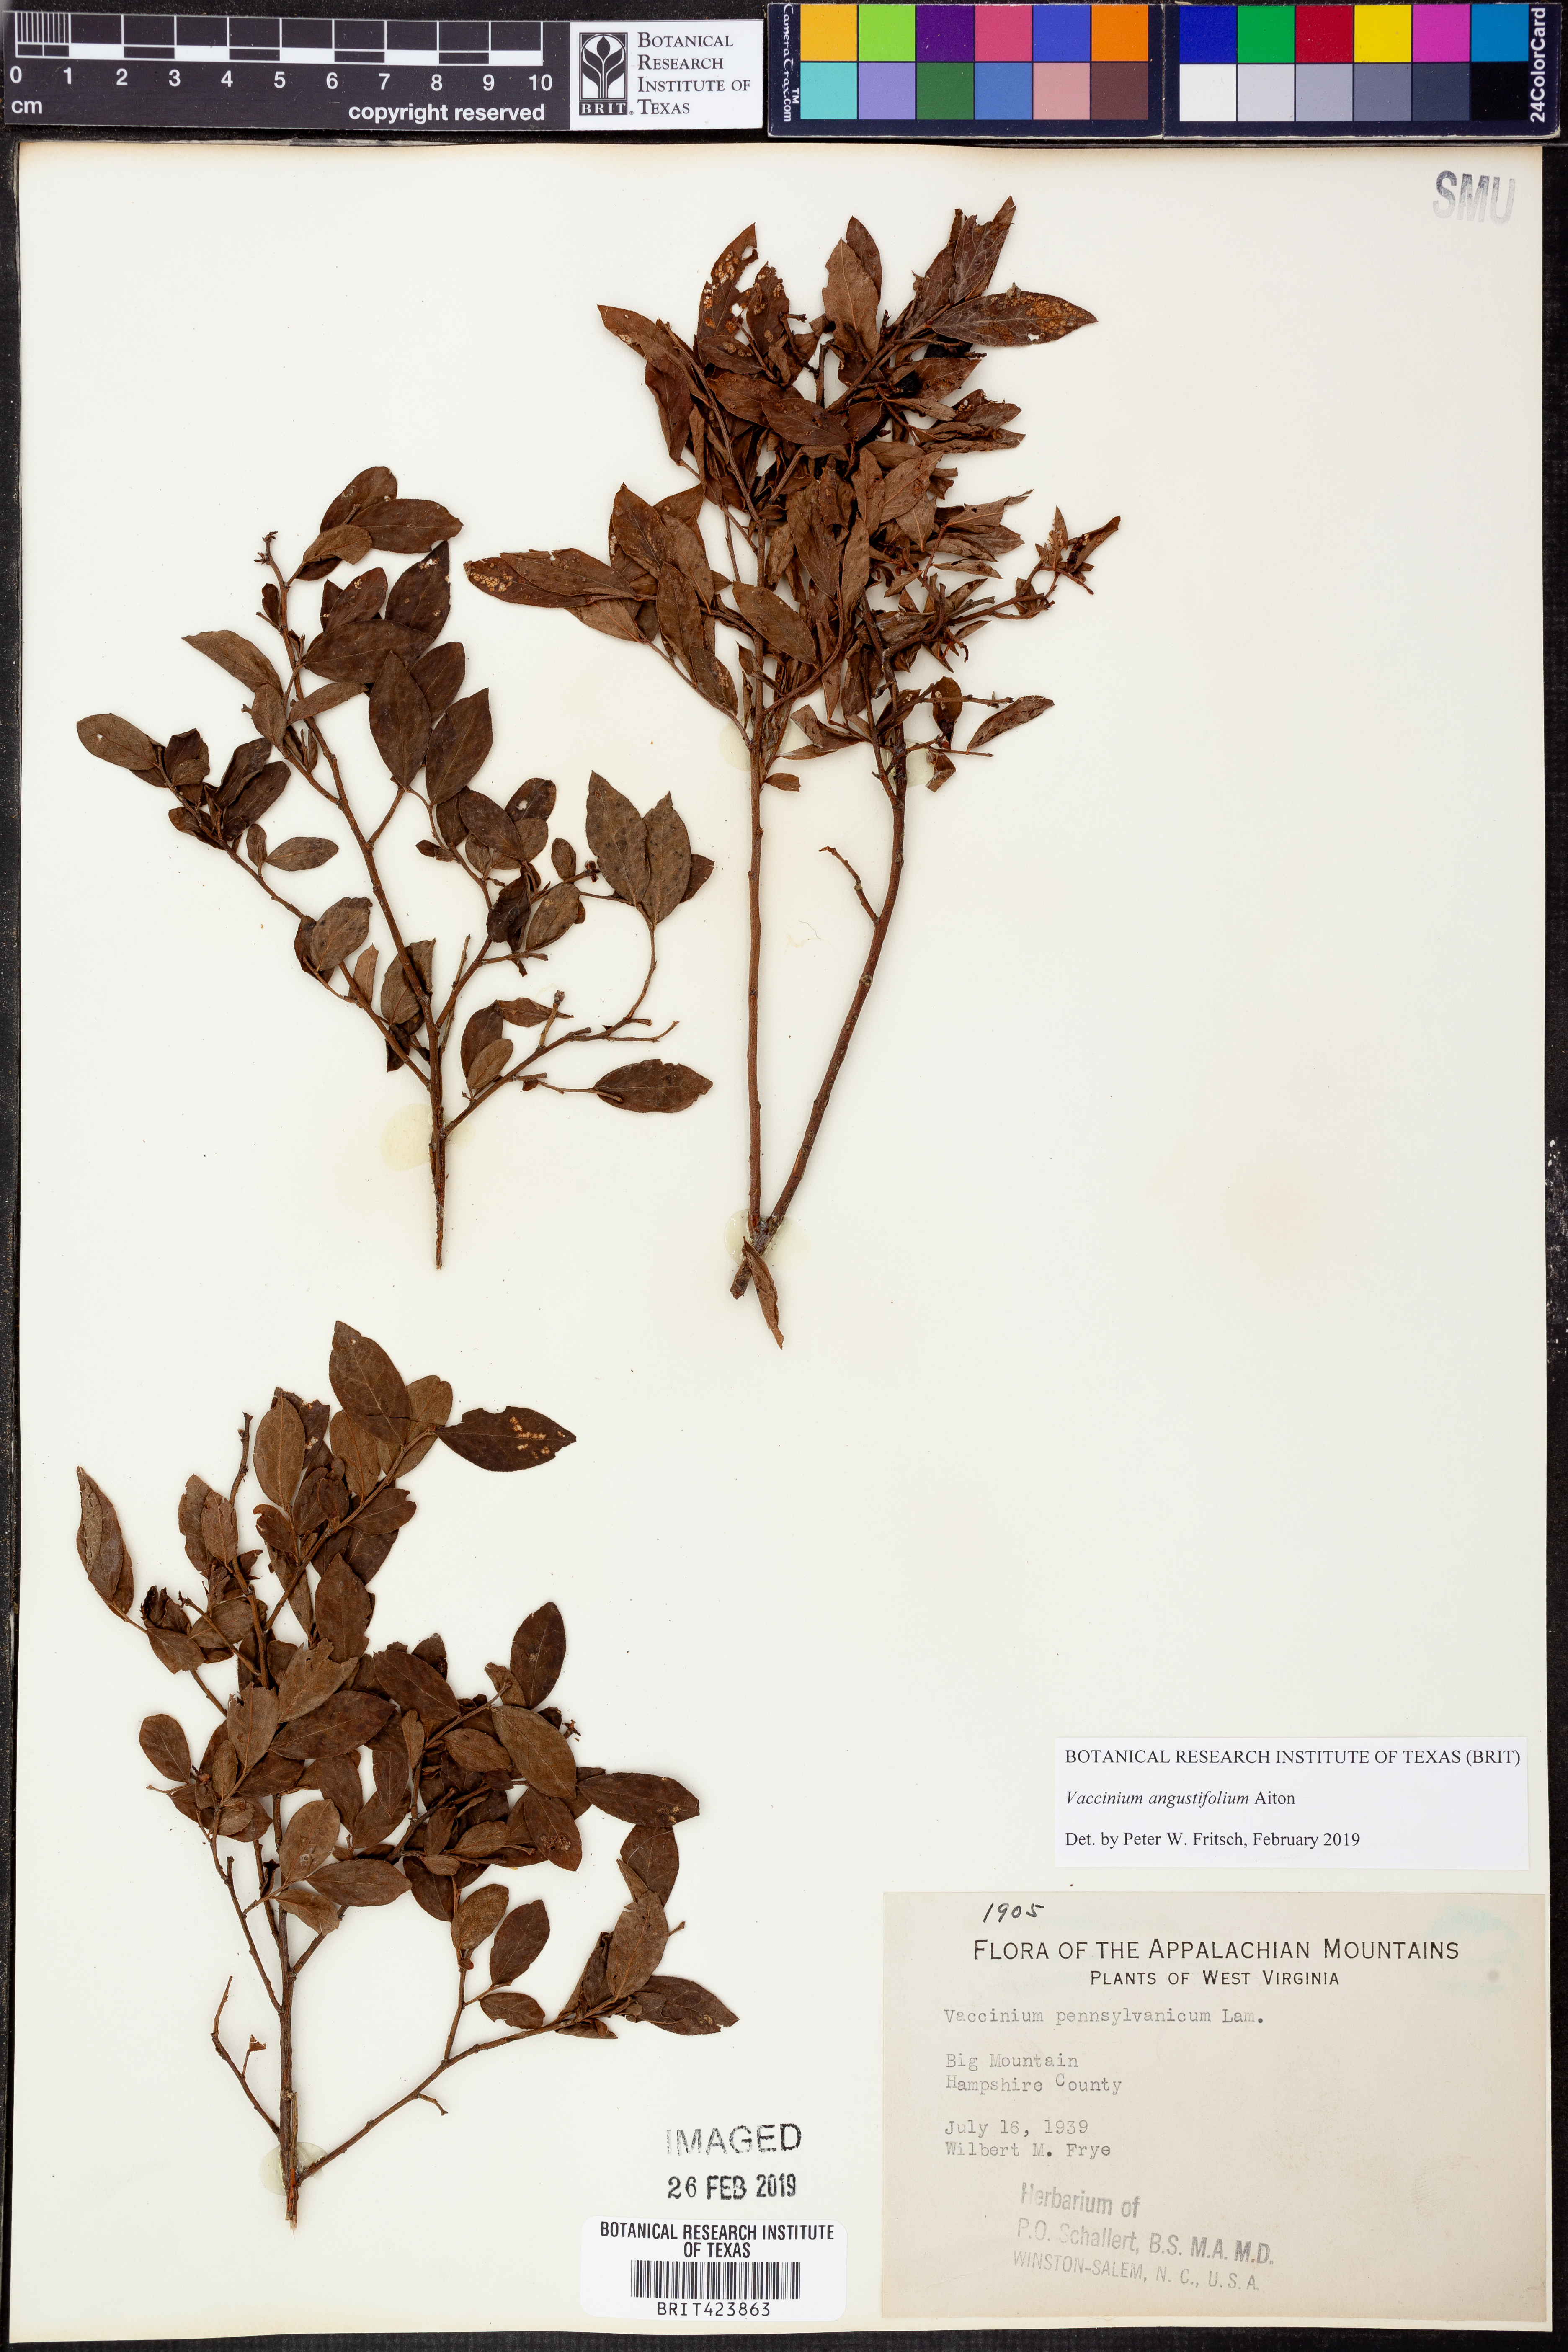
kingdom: Plantae
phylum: Tracheophyta
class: Magnoliopsida
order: Ericales
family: Ericaceae
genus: Vaccinium
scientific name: Vaccinium angustifolium
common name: Early lowbush blueberry
